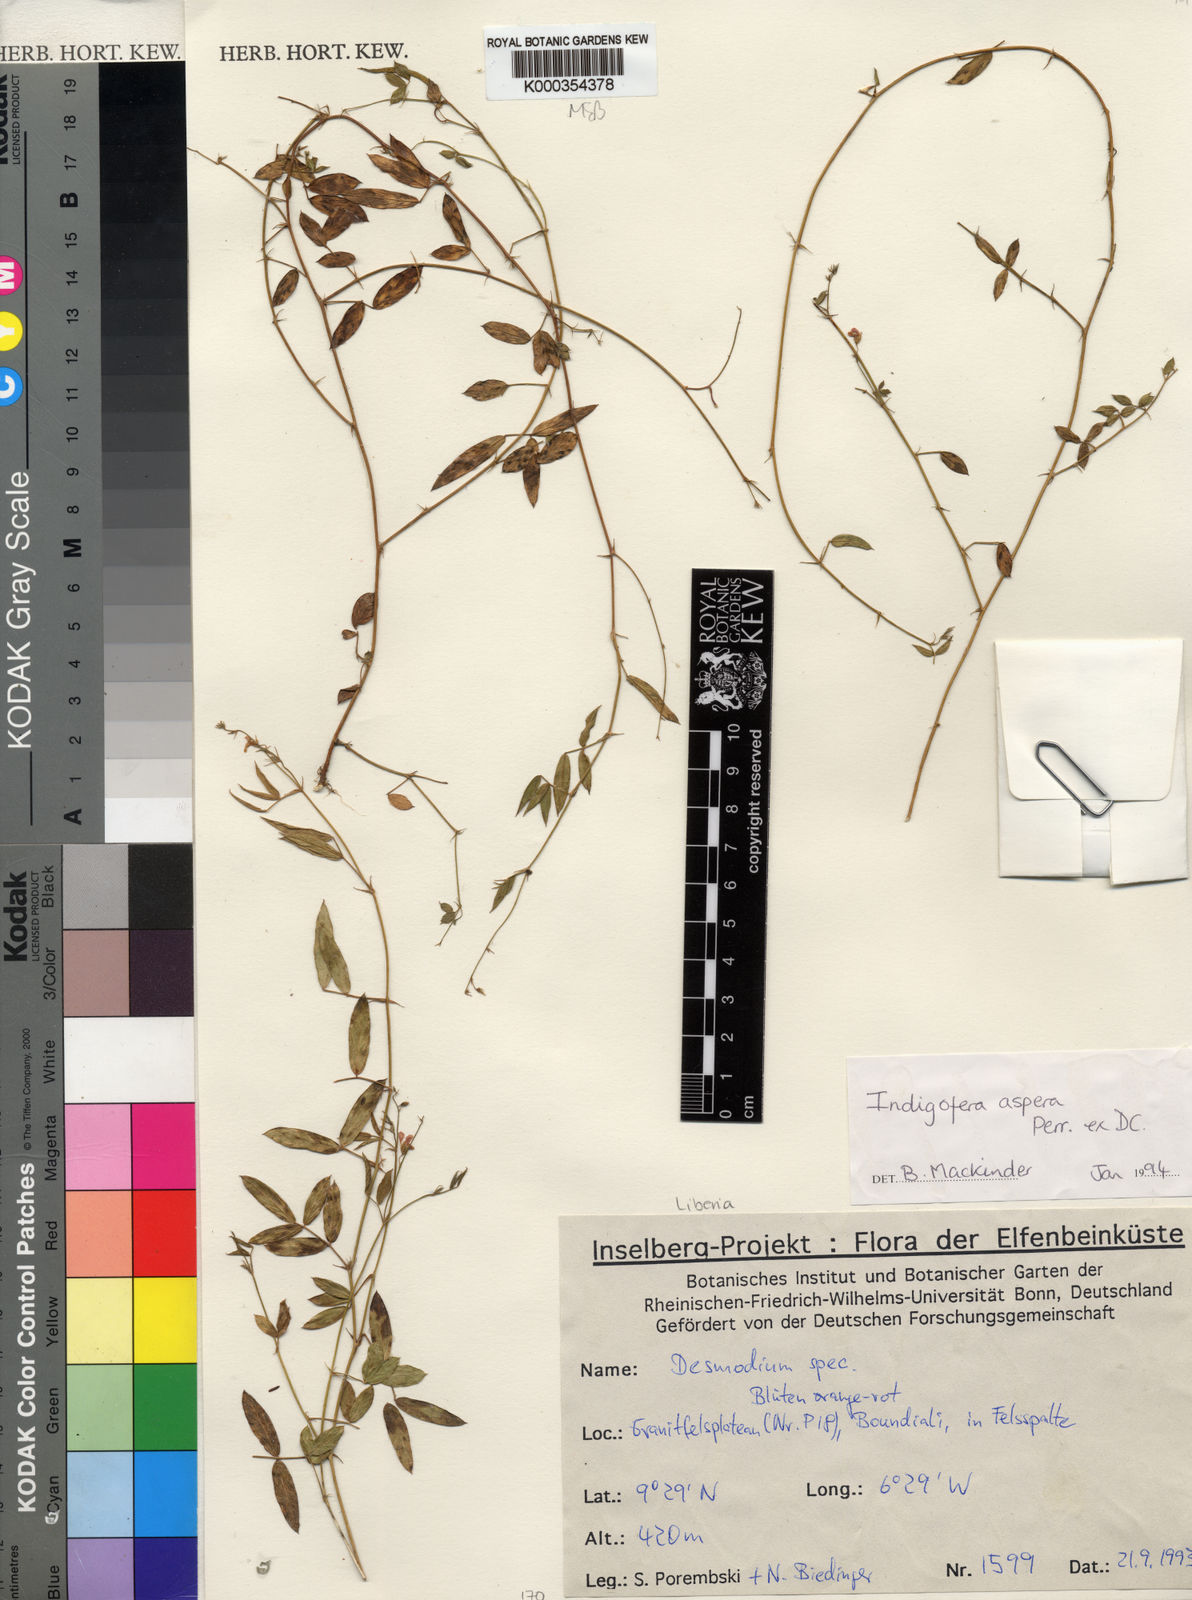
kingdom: Plantae
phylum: Tracheophyta
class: Magnoliopsida
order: Fabales
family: Fabaceae
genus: Indigofera
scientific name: Indigofera aspera
